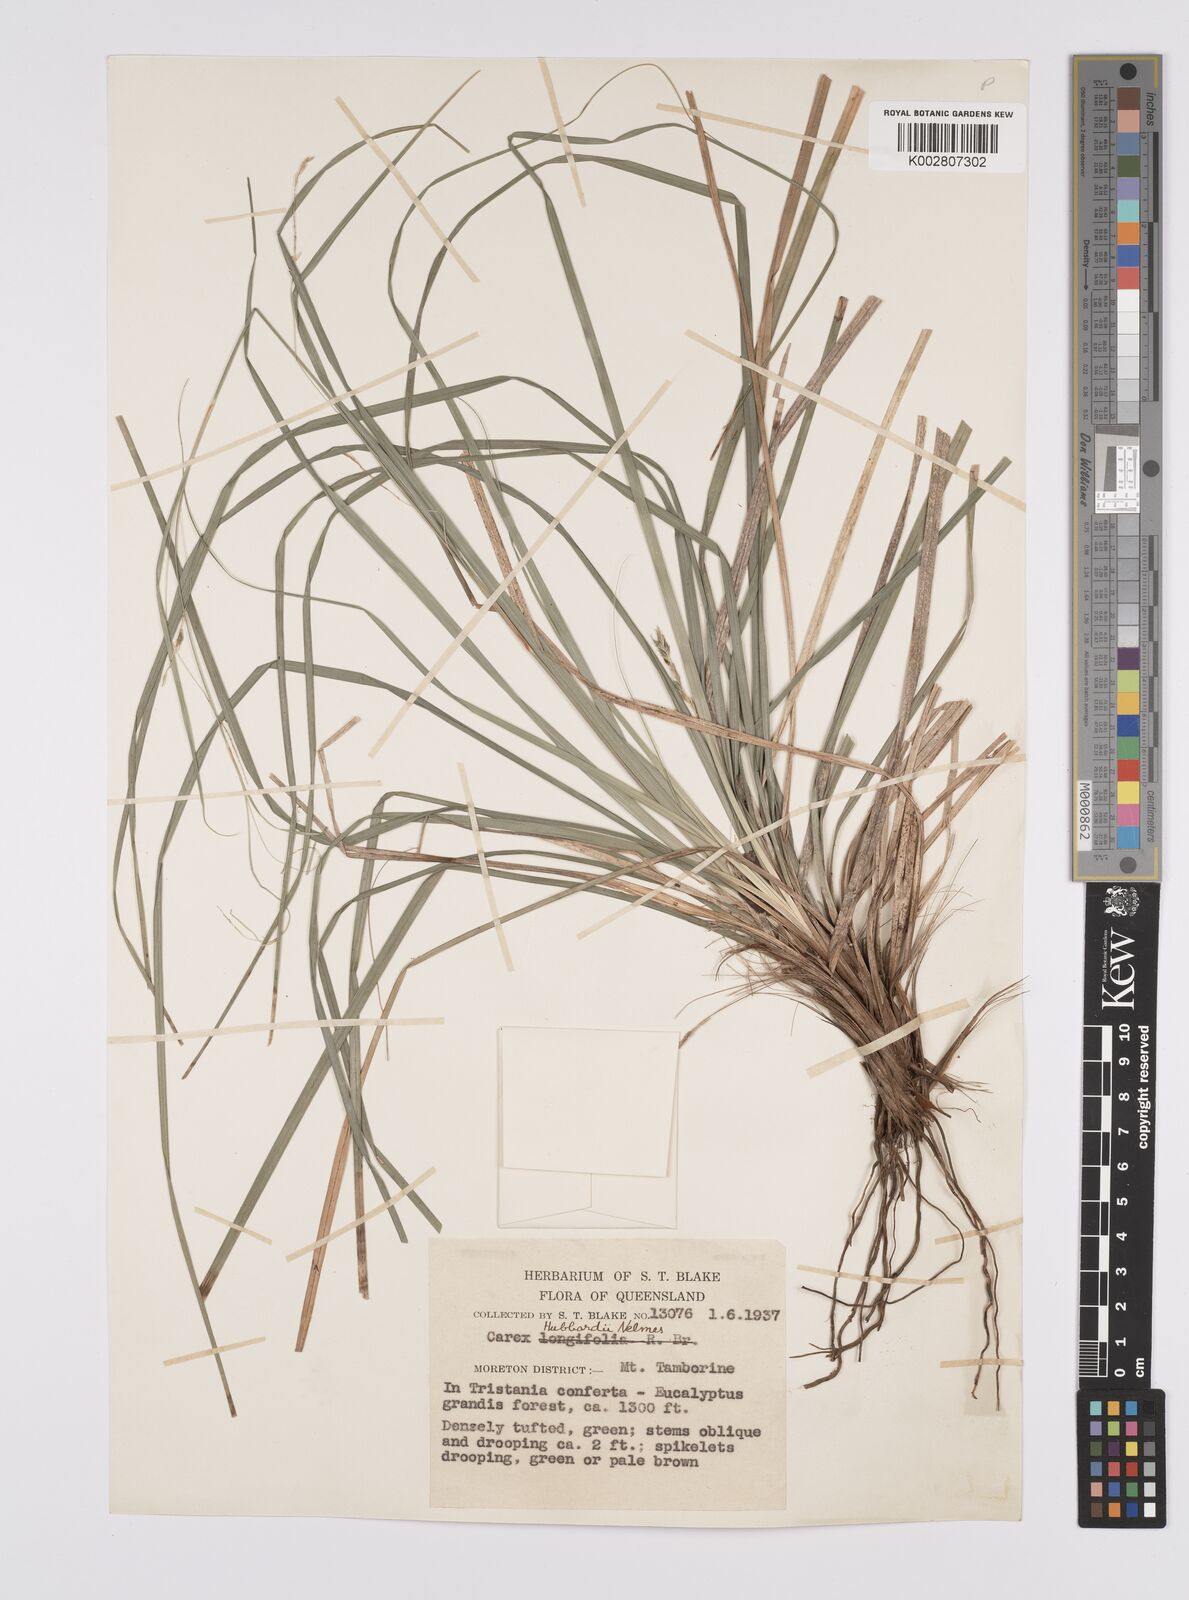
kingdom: Plantae
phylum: Tracheophyta
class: Liliopsida
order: Poales
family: Cyperaceae
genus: Carex
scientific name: Carex hubbardii
